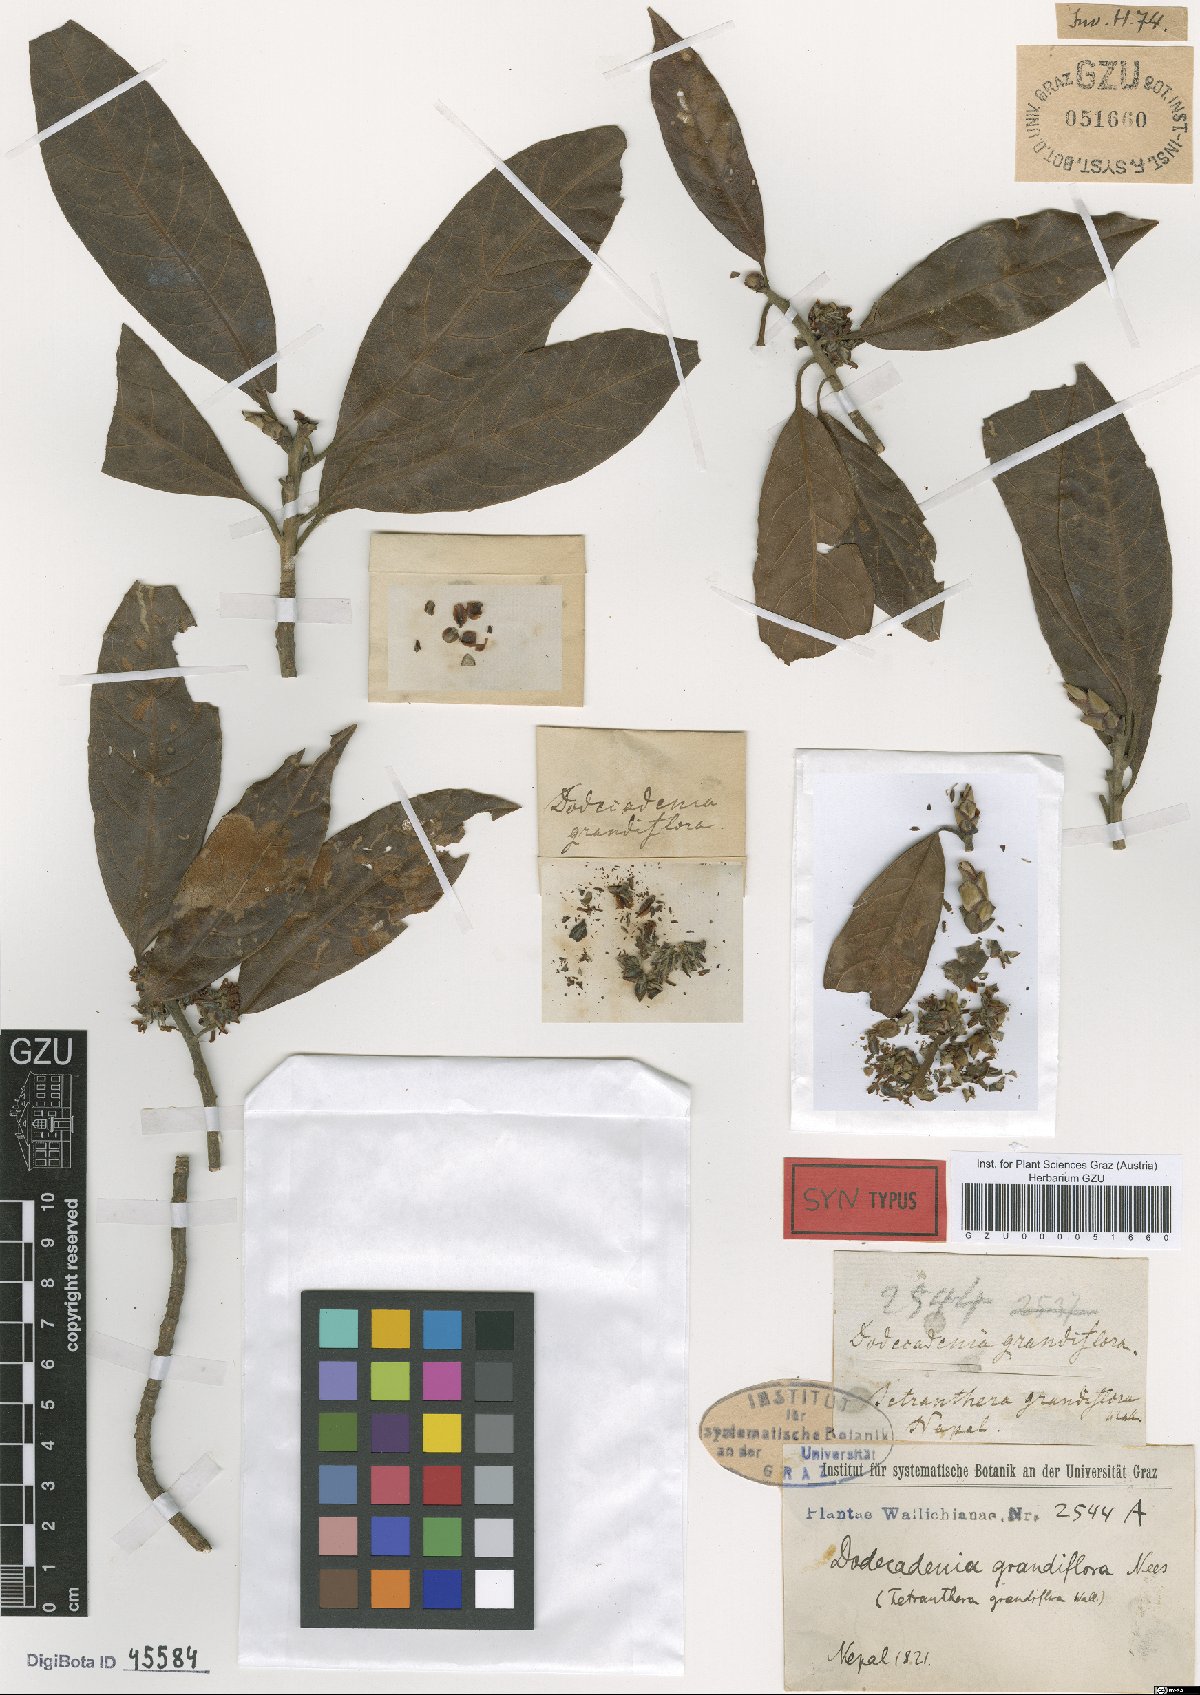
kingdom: Plantae
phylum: Tracheophyta
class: Magnoliopsida
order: Laurales
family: Lauraceae
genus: Dodecadenia
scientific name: Dodecadenia grandiflora
